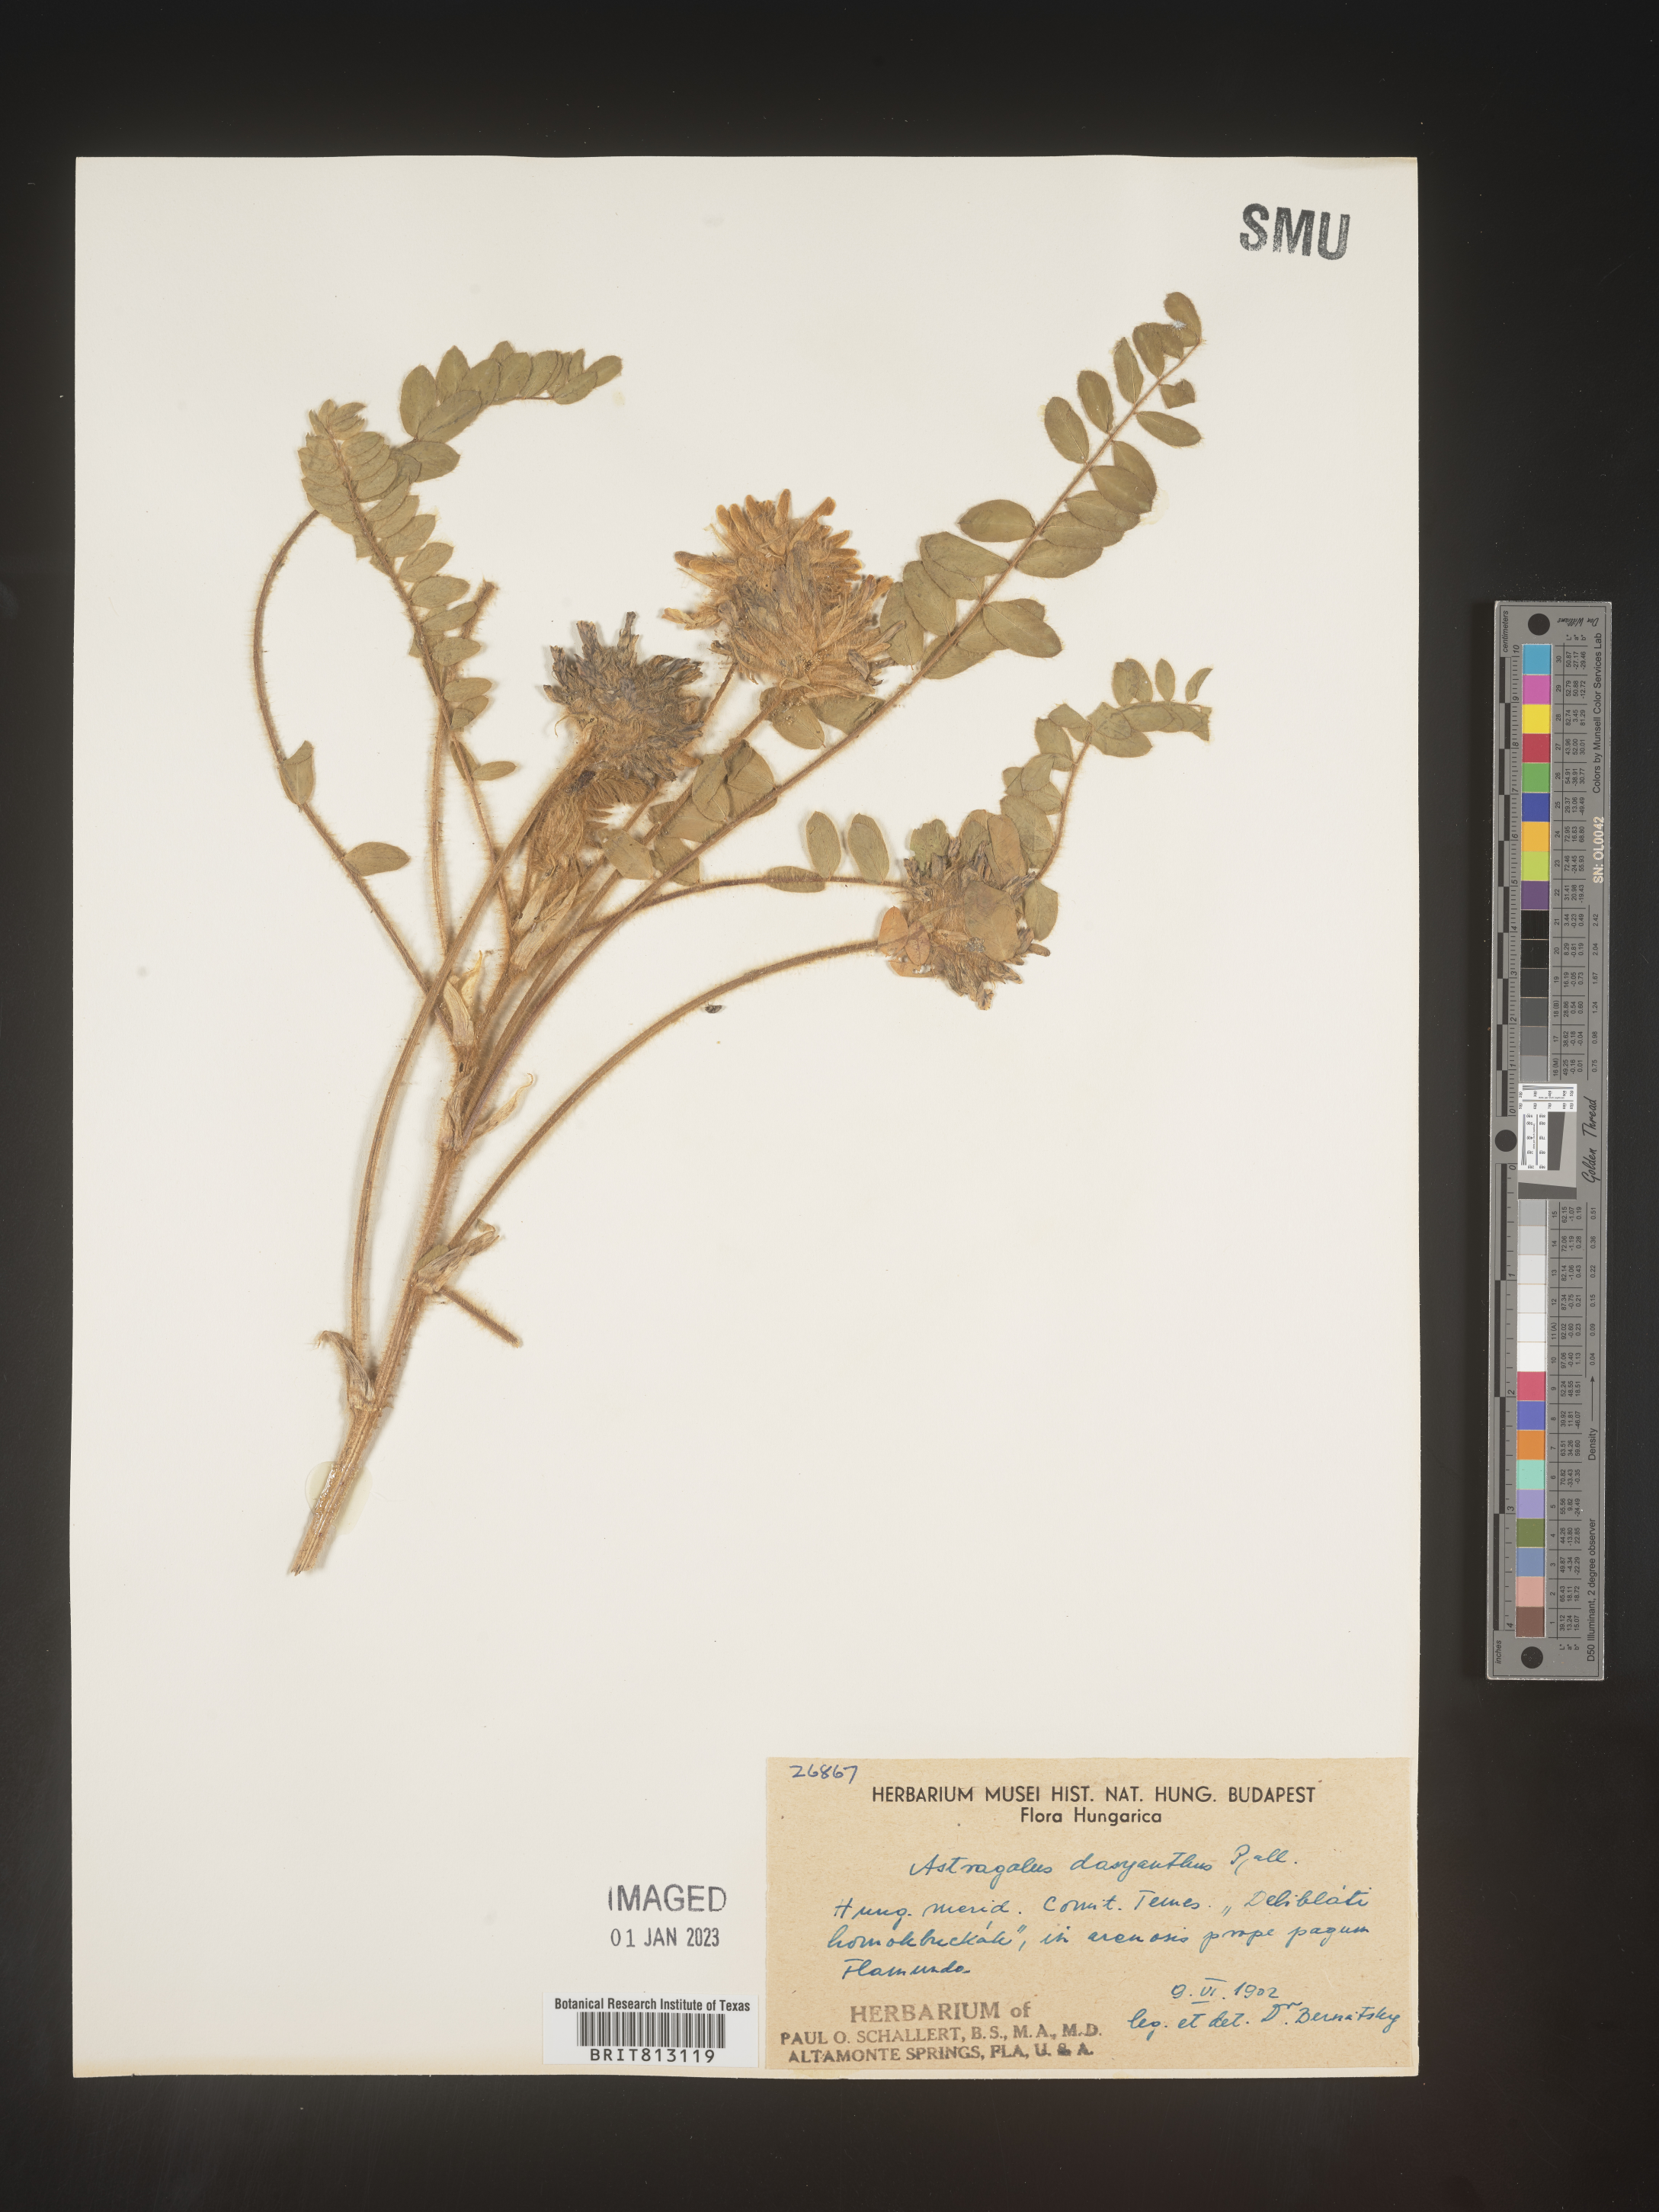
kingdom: Plantae
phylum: Tracheophyta
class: Magnoliopsida
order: Fabales
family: Fabaceae
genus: Astragalus
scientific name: Astragalus
